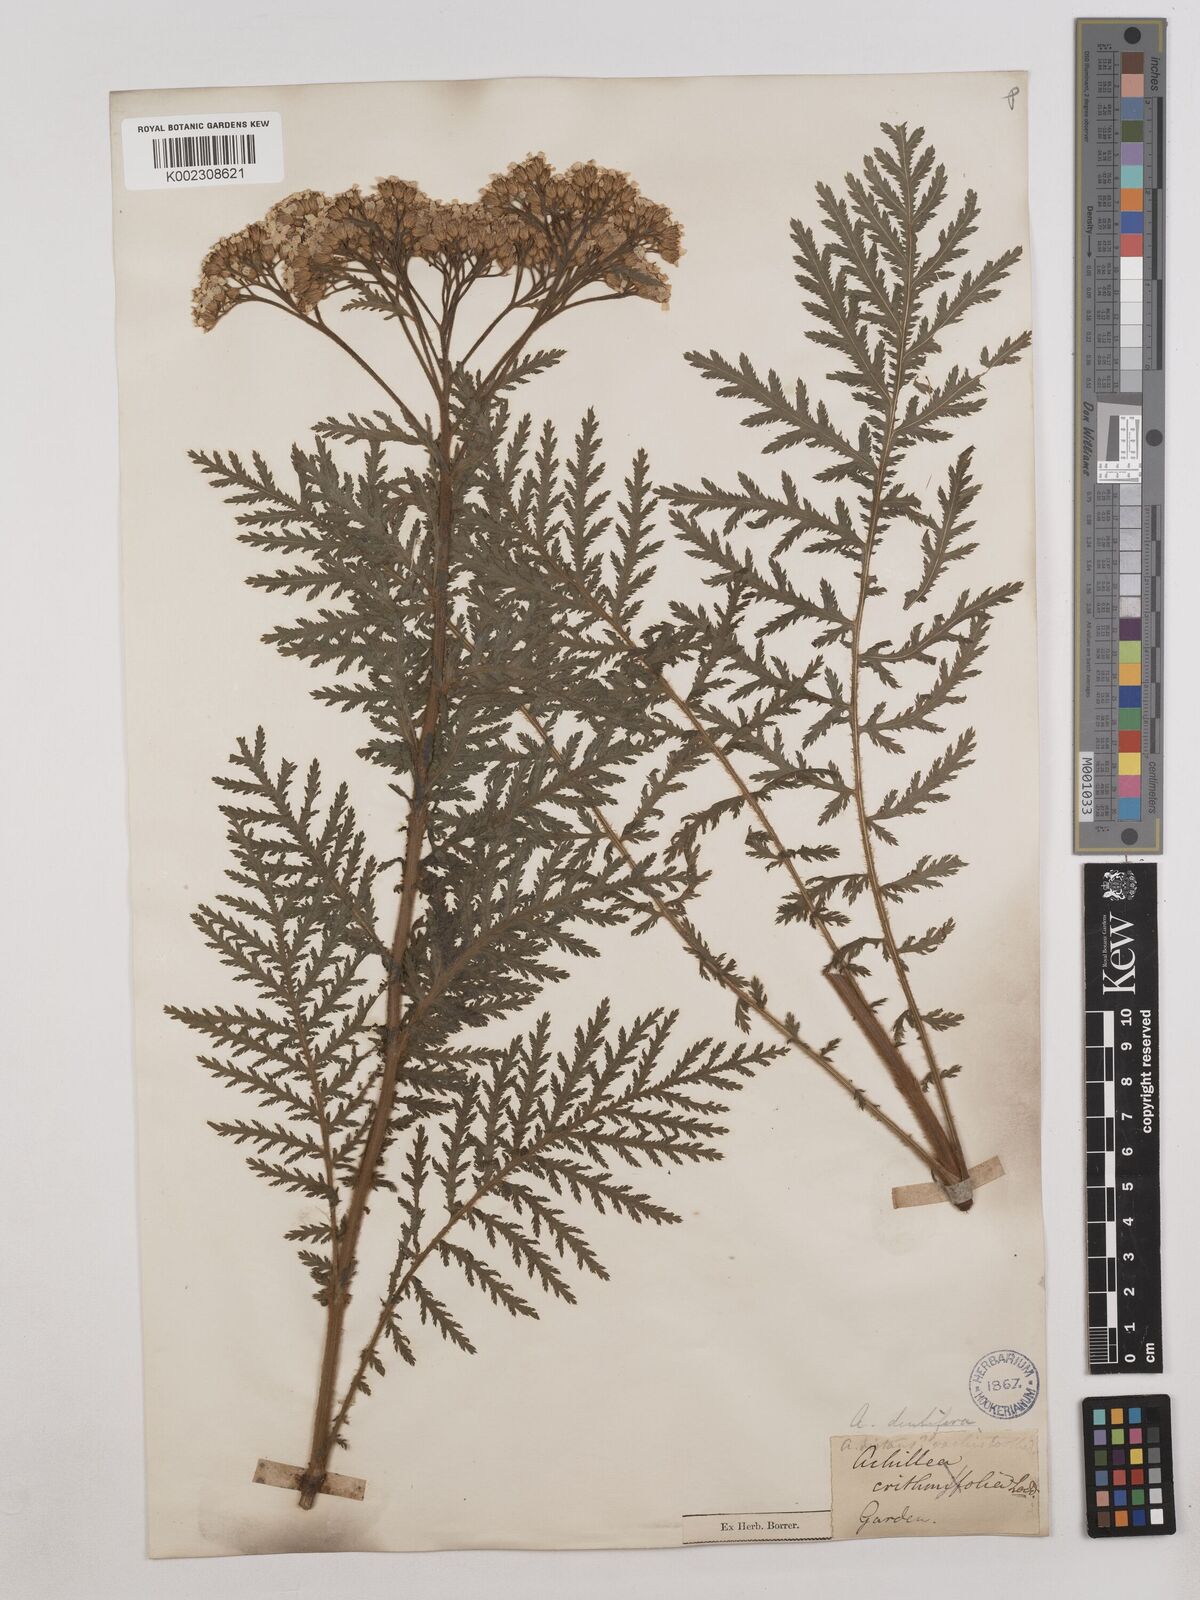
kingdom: Plantae
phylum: Tracheophyta
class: Magnoliopsida
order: Asterales
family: Asteraceae
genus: Achillea
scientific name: Achillea distans
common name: Tall yarrow
